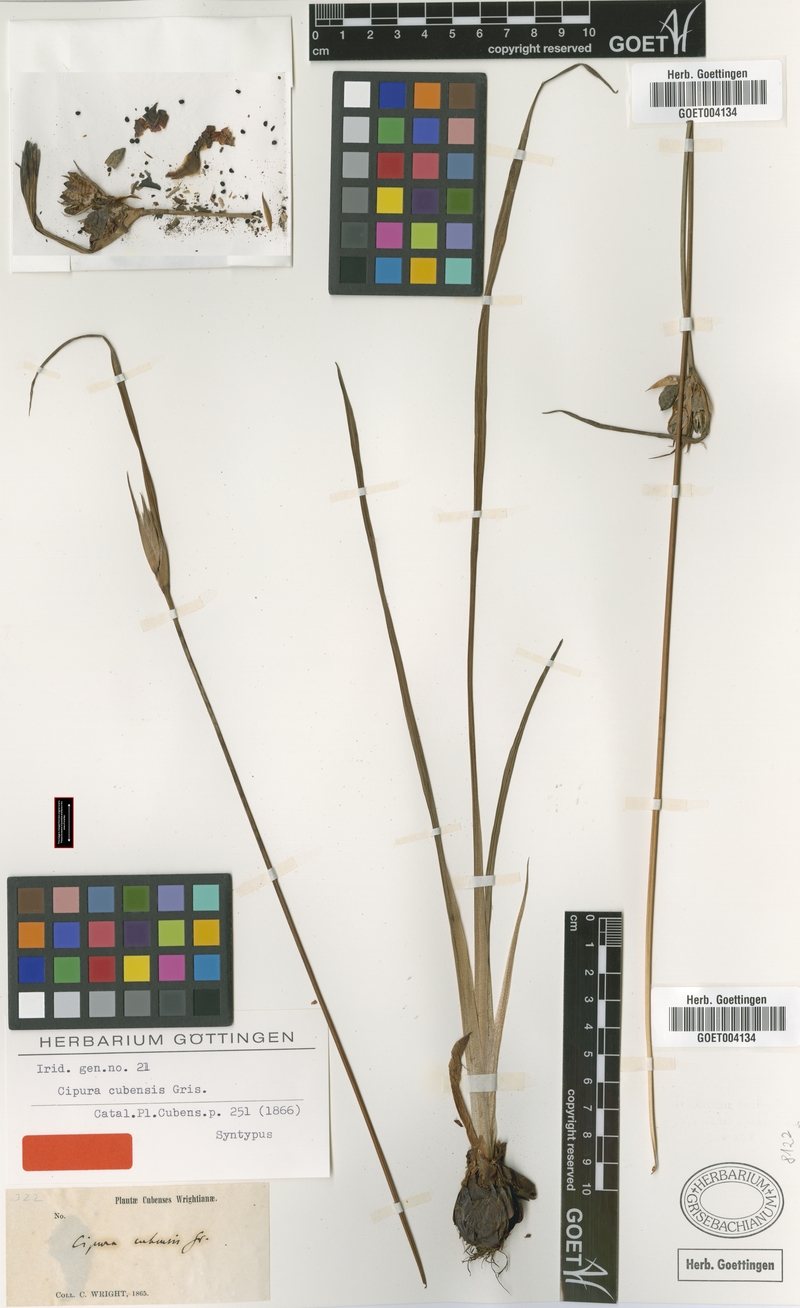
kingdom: Plantae
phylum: Tracheophyta
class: Liliopsida
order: Asparagales
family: Iridaceae
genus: Cipura
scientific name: Cipura paludosa
